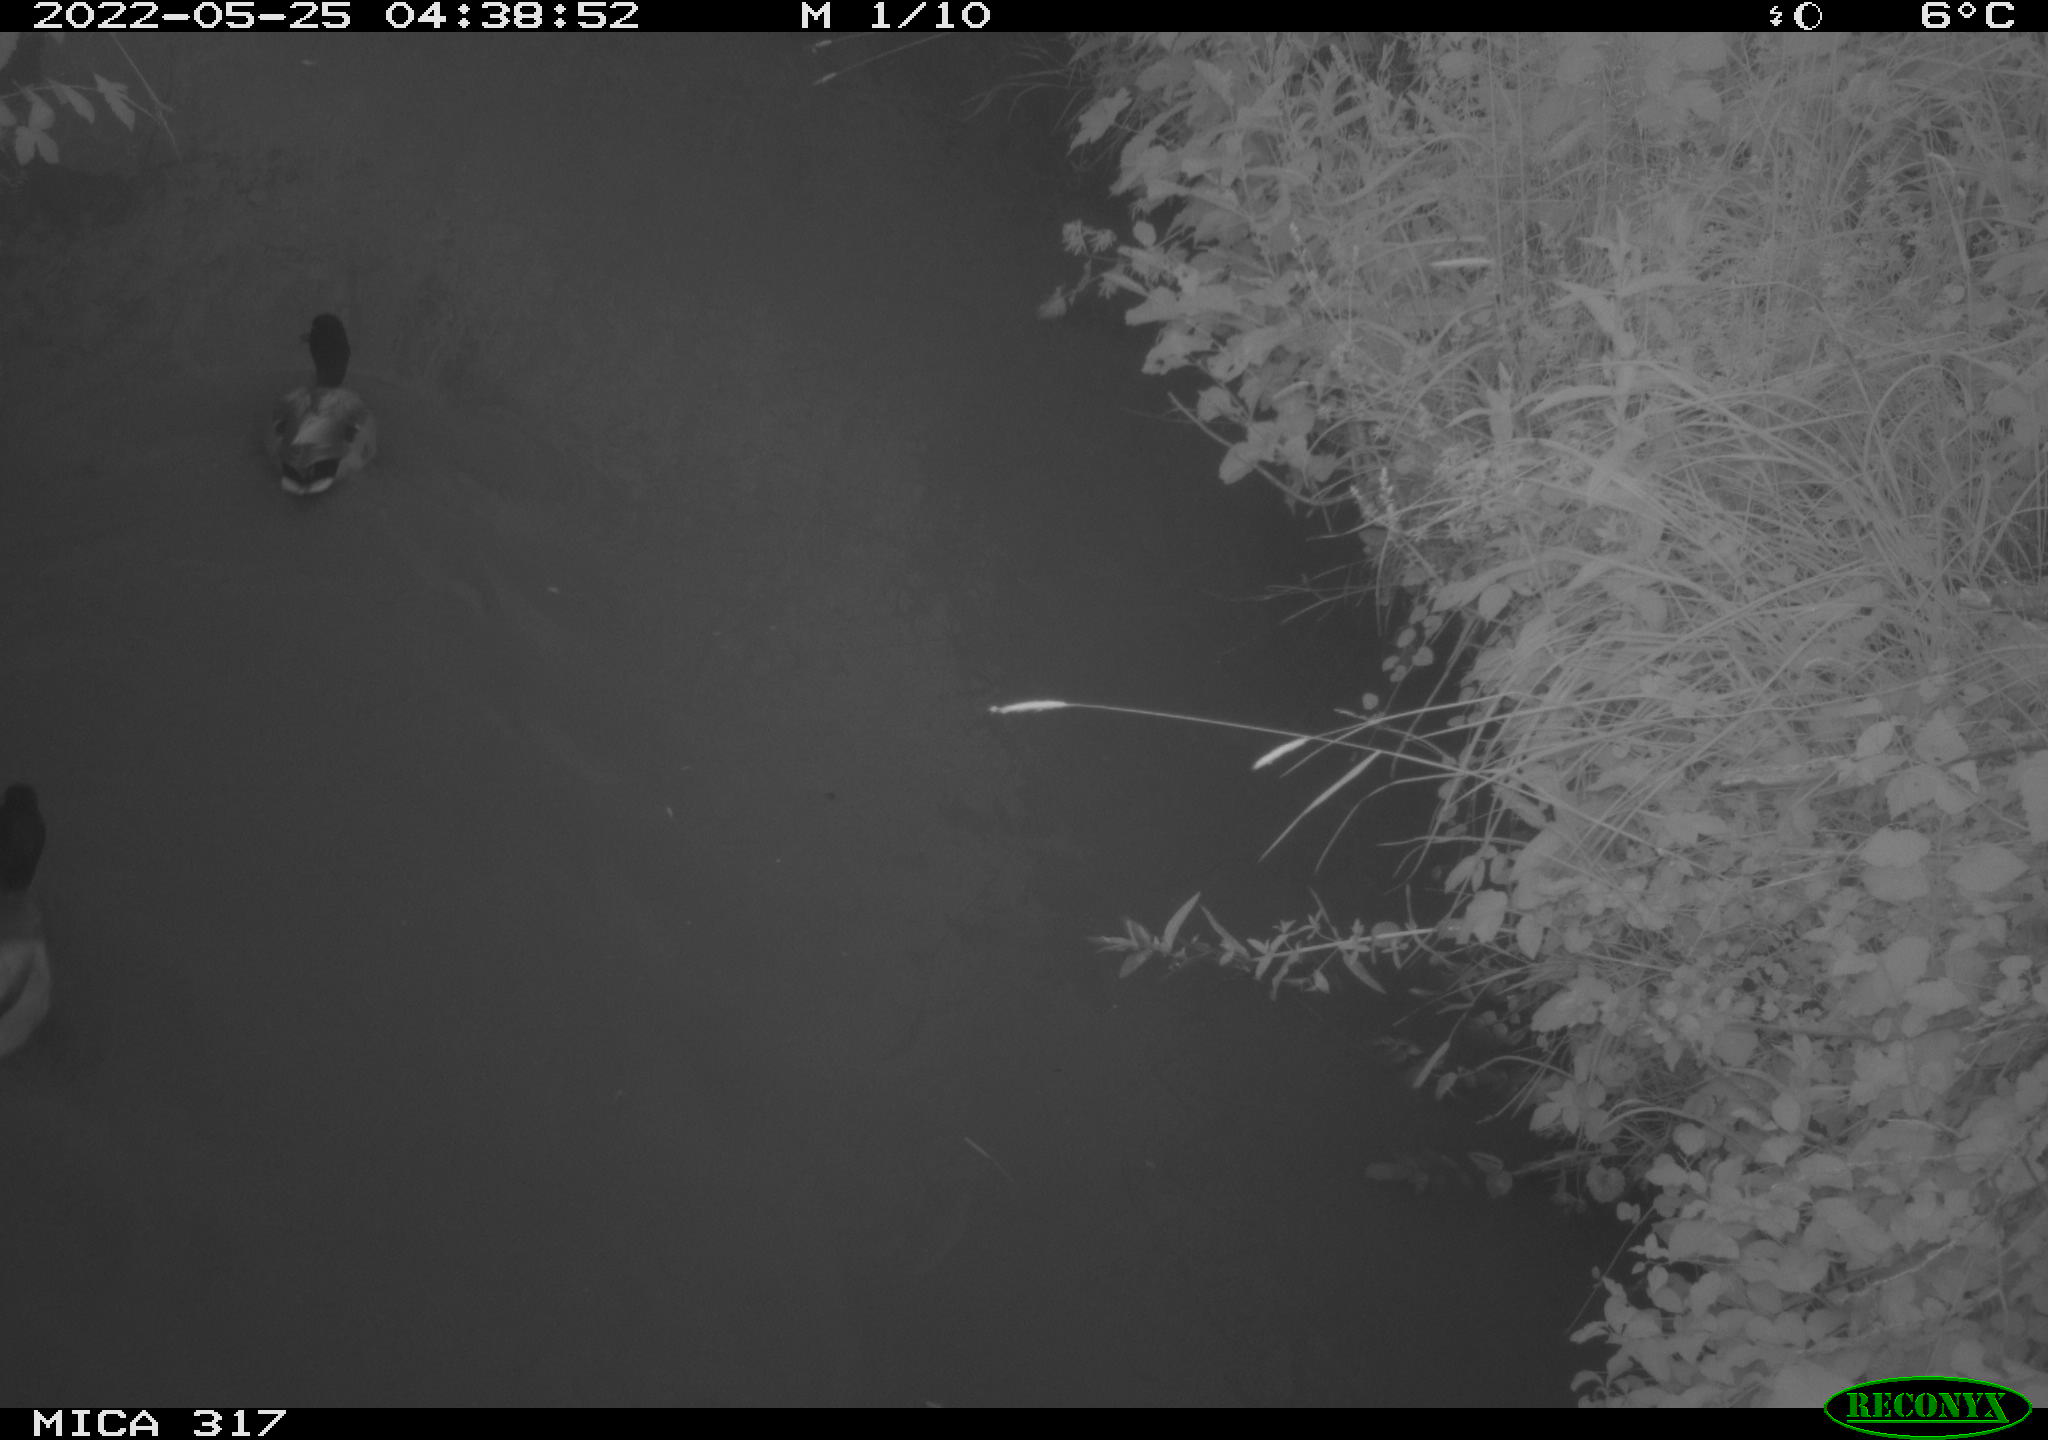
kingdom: Animalia
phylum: Chordata
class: Aves
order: Anseriformes
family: Anatidae
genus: Anas
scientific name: Anas
